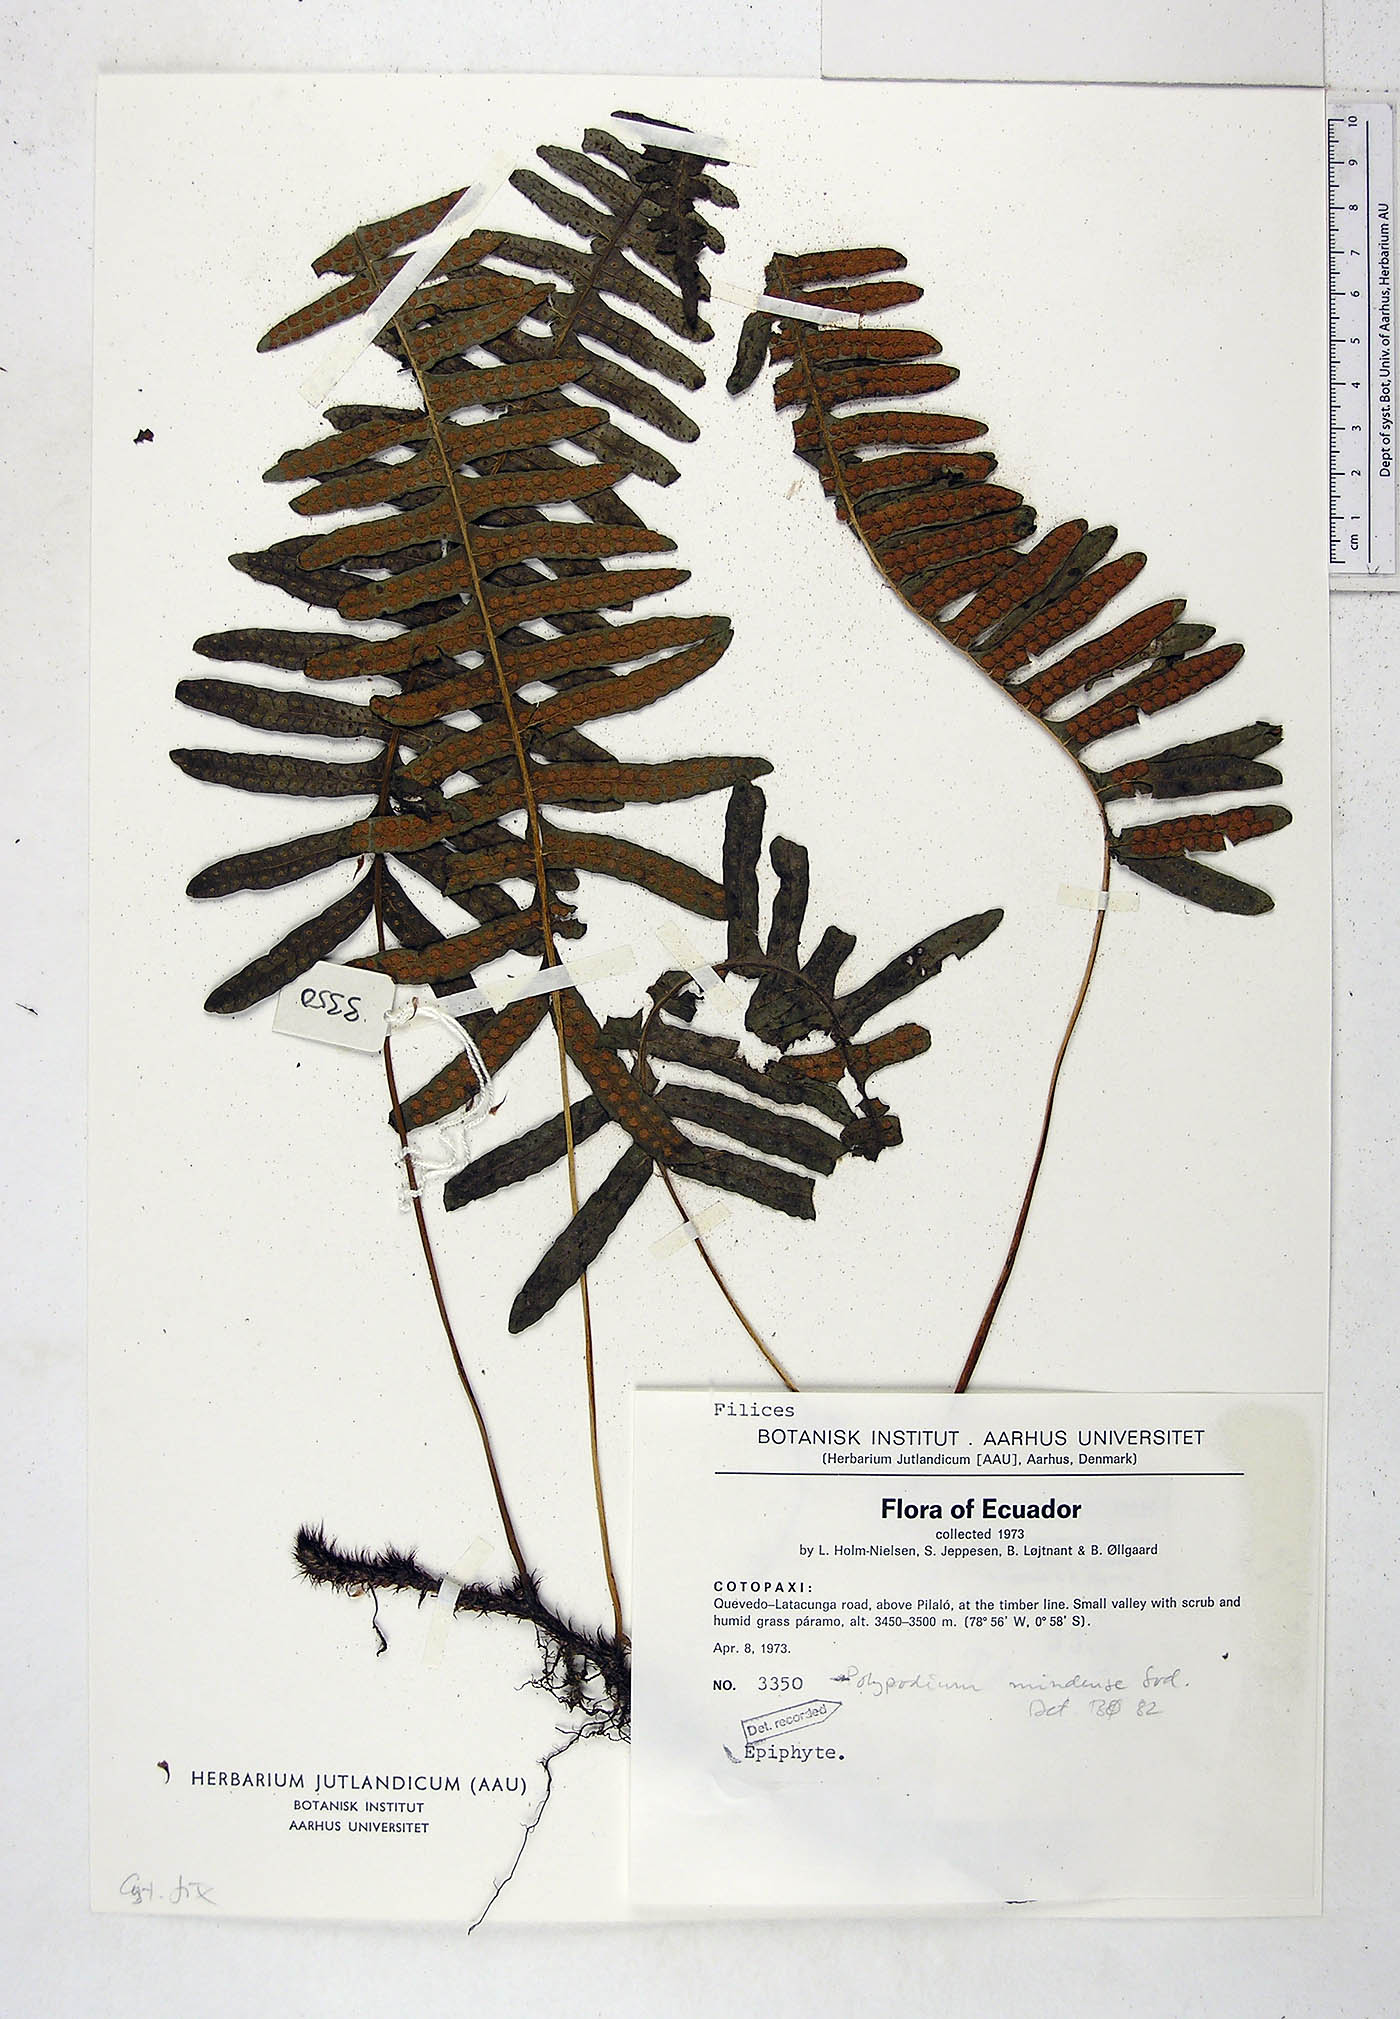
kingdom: Plantae
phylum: Tracheophyta
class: Polypodiopsida
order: Polypodiales
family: Polypodiaceae
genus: Serpocaulon
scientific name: Serpocaulon eleutherophlebium
